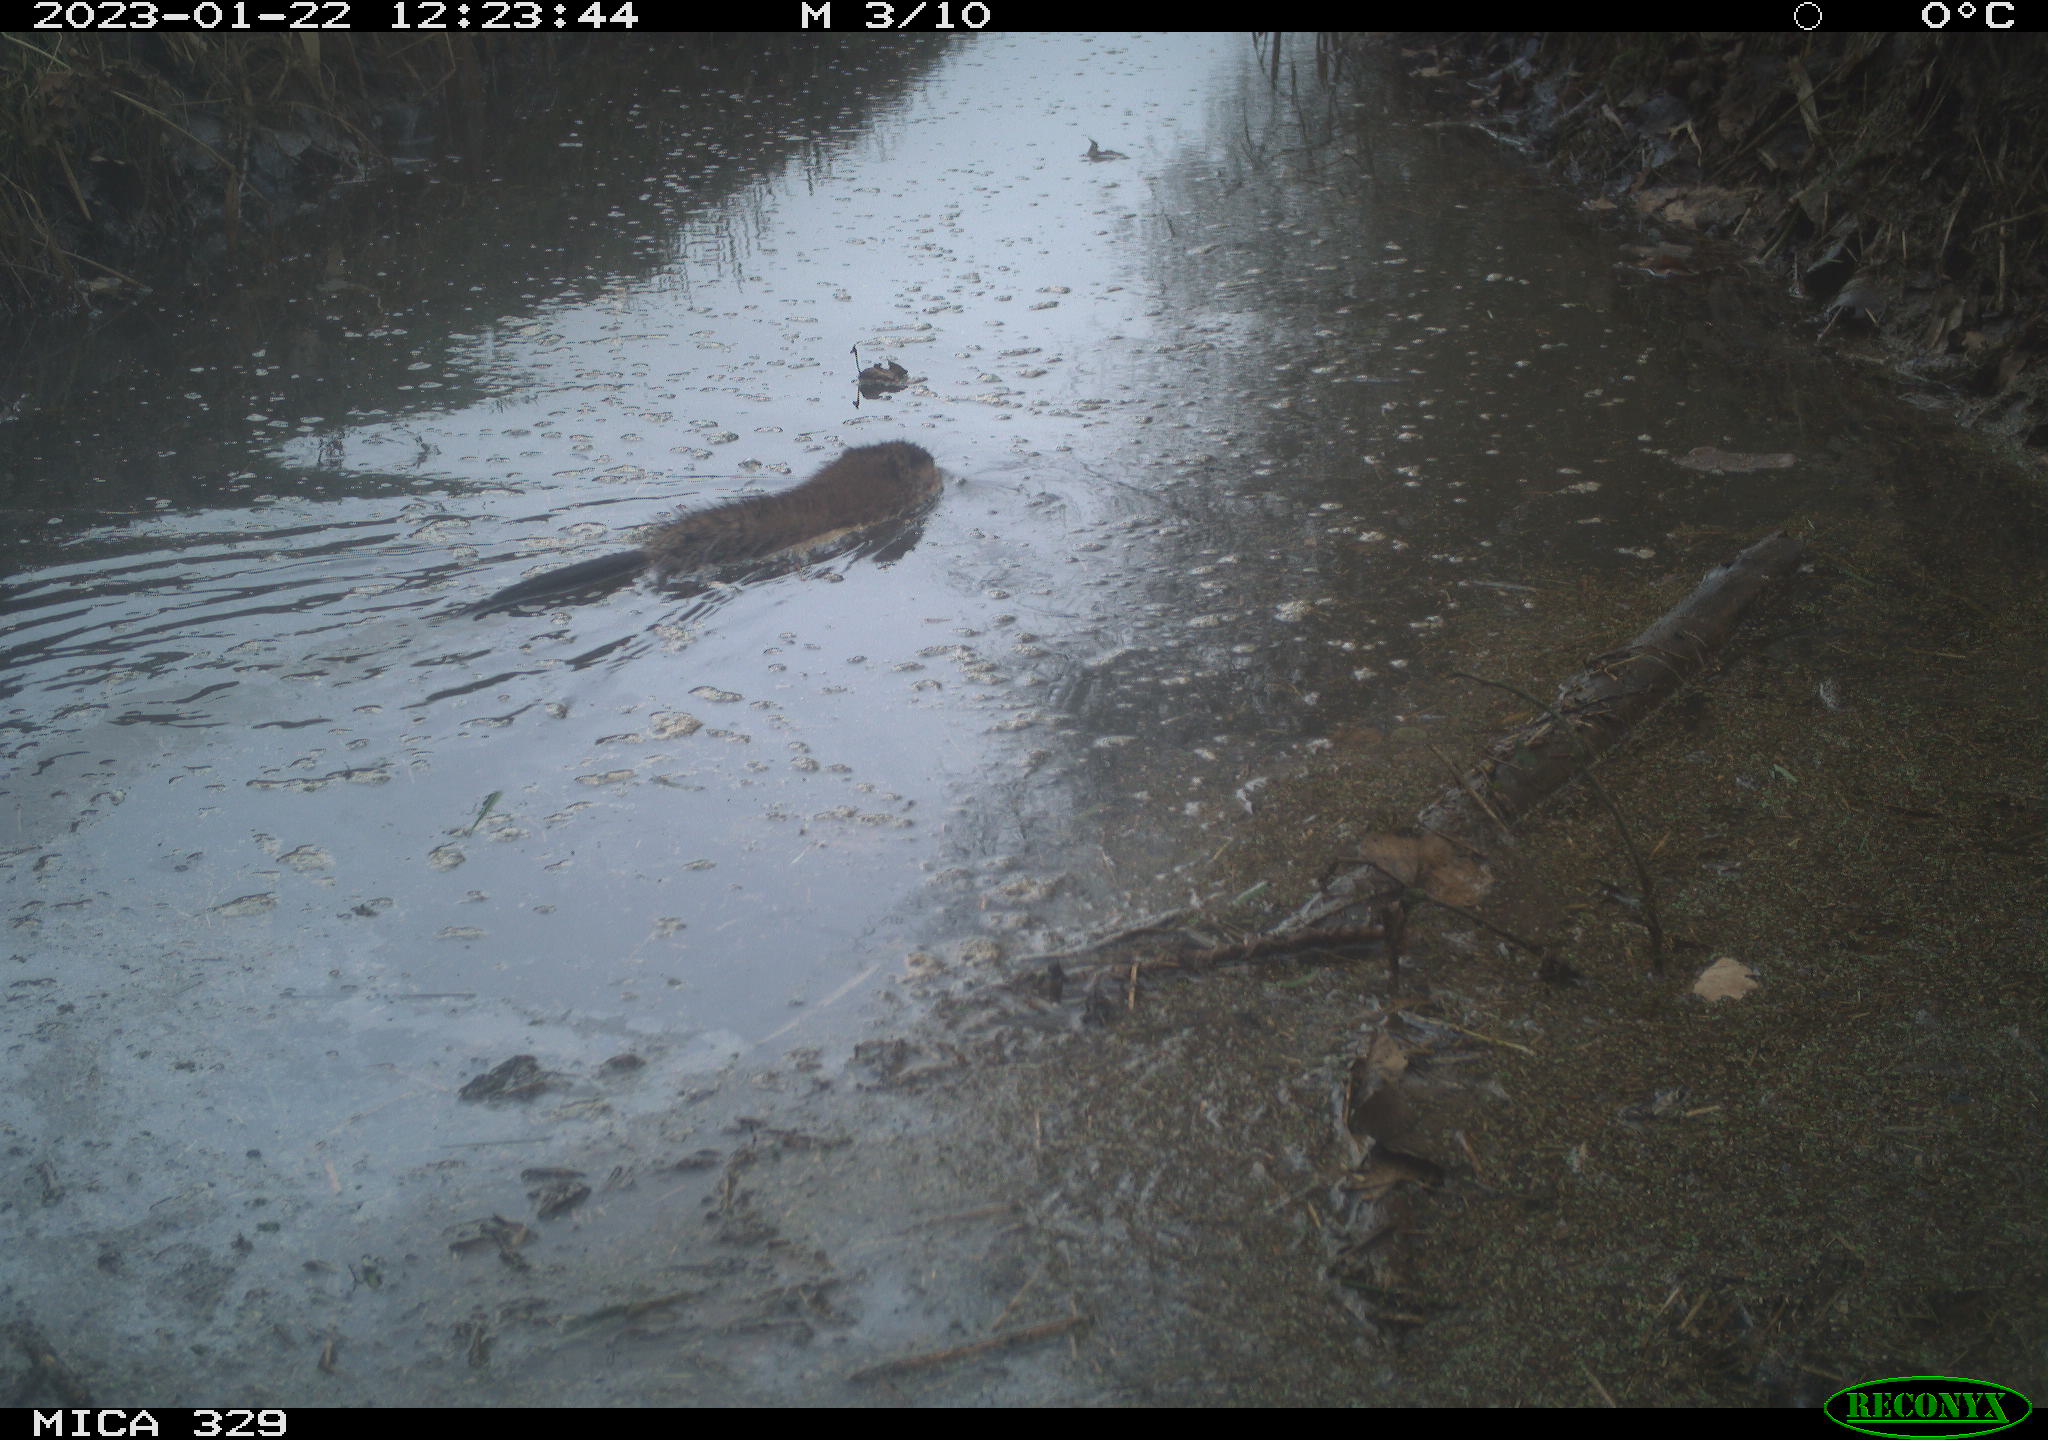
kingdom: Animalia
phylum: Chordata
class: Mammalia
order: Rodentia
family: Cricetidae
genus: Ondatra
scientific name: Ondatra zibethicus
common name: Muskrat
